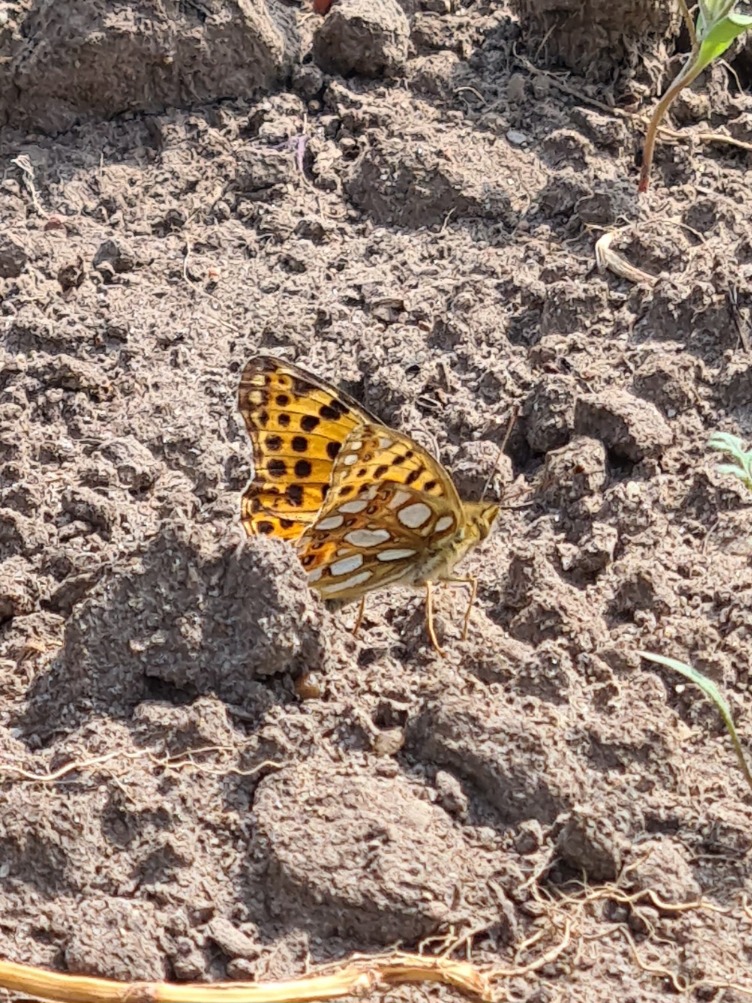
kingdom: Animalia
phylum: Arthropoda
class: Insecta
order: Lepidoptera
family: Nymphalidae
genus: Issoria
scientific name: Issoria lathonia
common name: Storplettet perlemorsommerfugl
